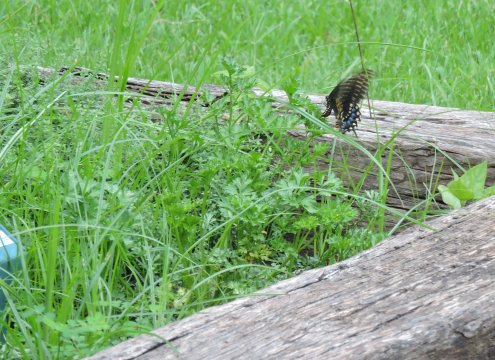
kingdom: Animalia
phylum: Arthropoda
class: Insecta
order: Lepidoptera
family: Papilionidae
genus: Papilio
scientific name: Papilio polyxenes
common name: Black Swallowtail
